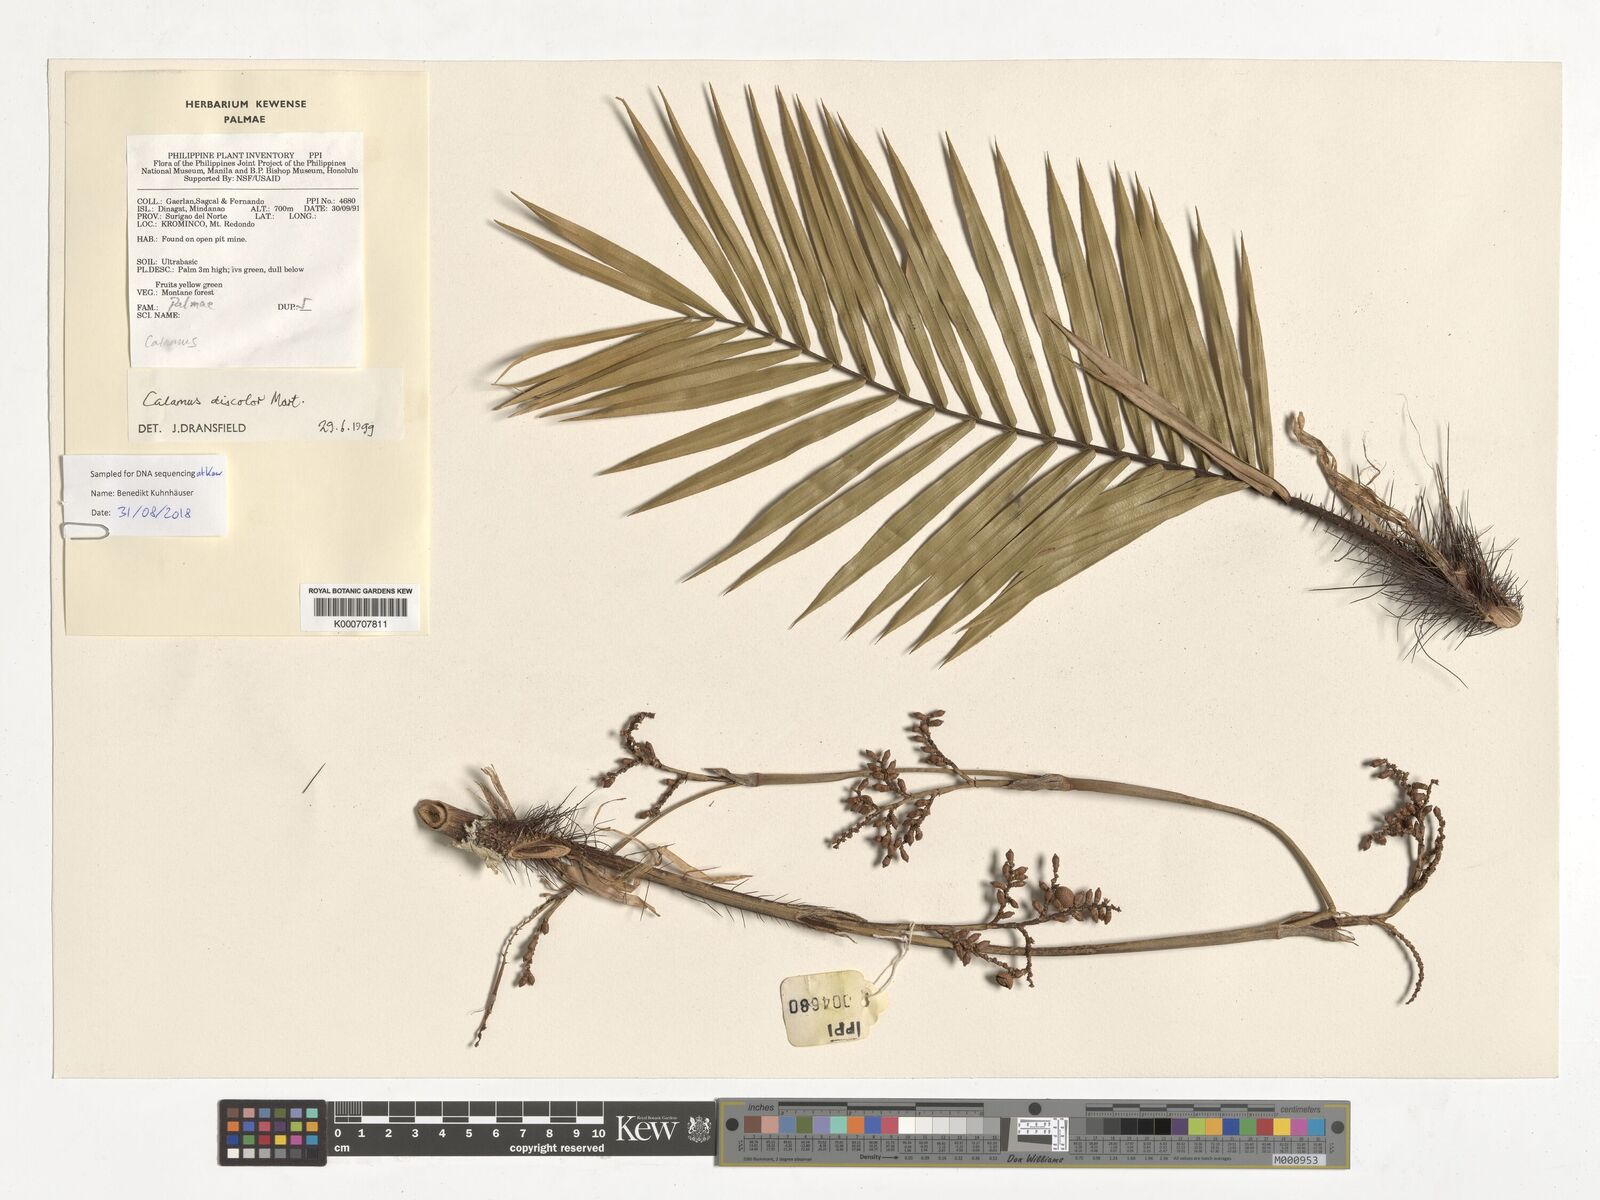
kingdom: Plantae
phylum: Tracheophyta
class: Liliopsida
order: Arecales
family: Arecaceae
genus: Calamus
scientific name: Calamus discolor
